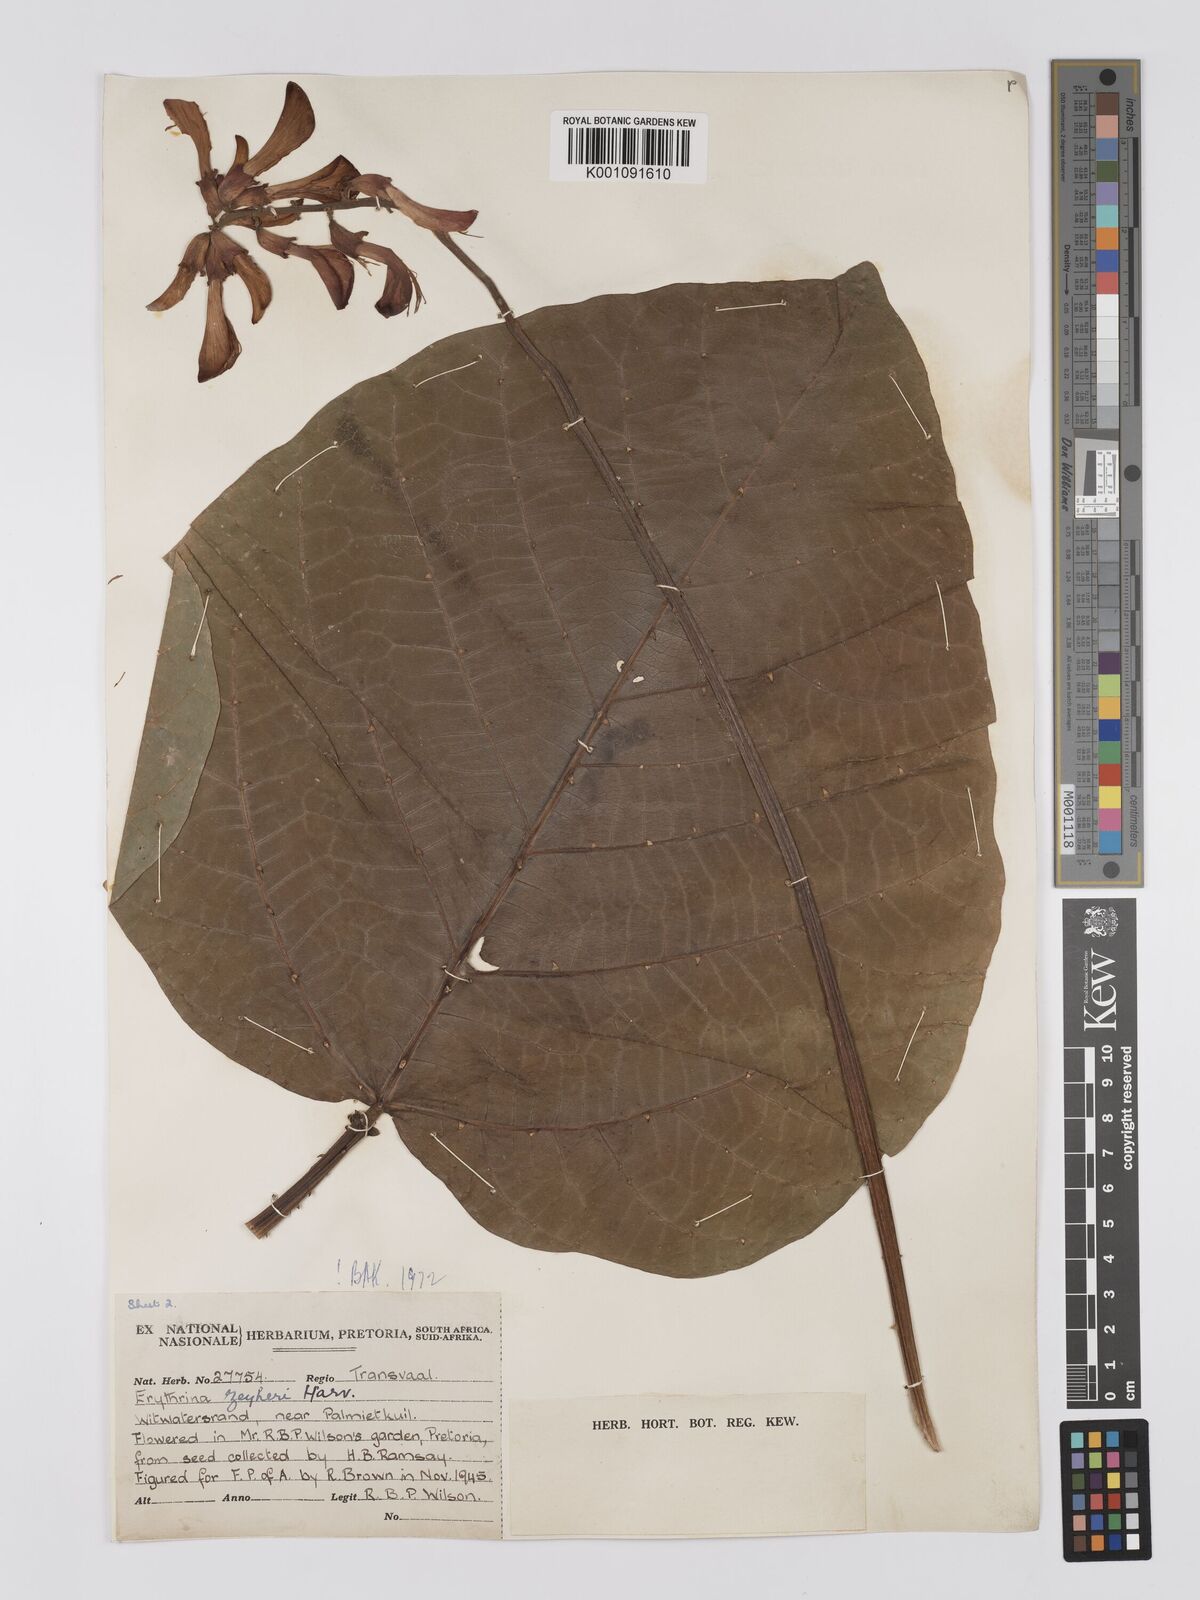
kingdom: Plantae
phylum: Tracheophyta
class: Magnoliopsida
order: Fabales
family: Fabaceae
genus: Erythrina
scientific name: Erythrina zeyheri
